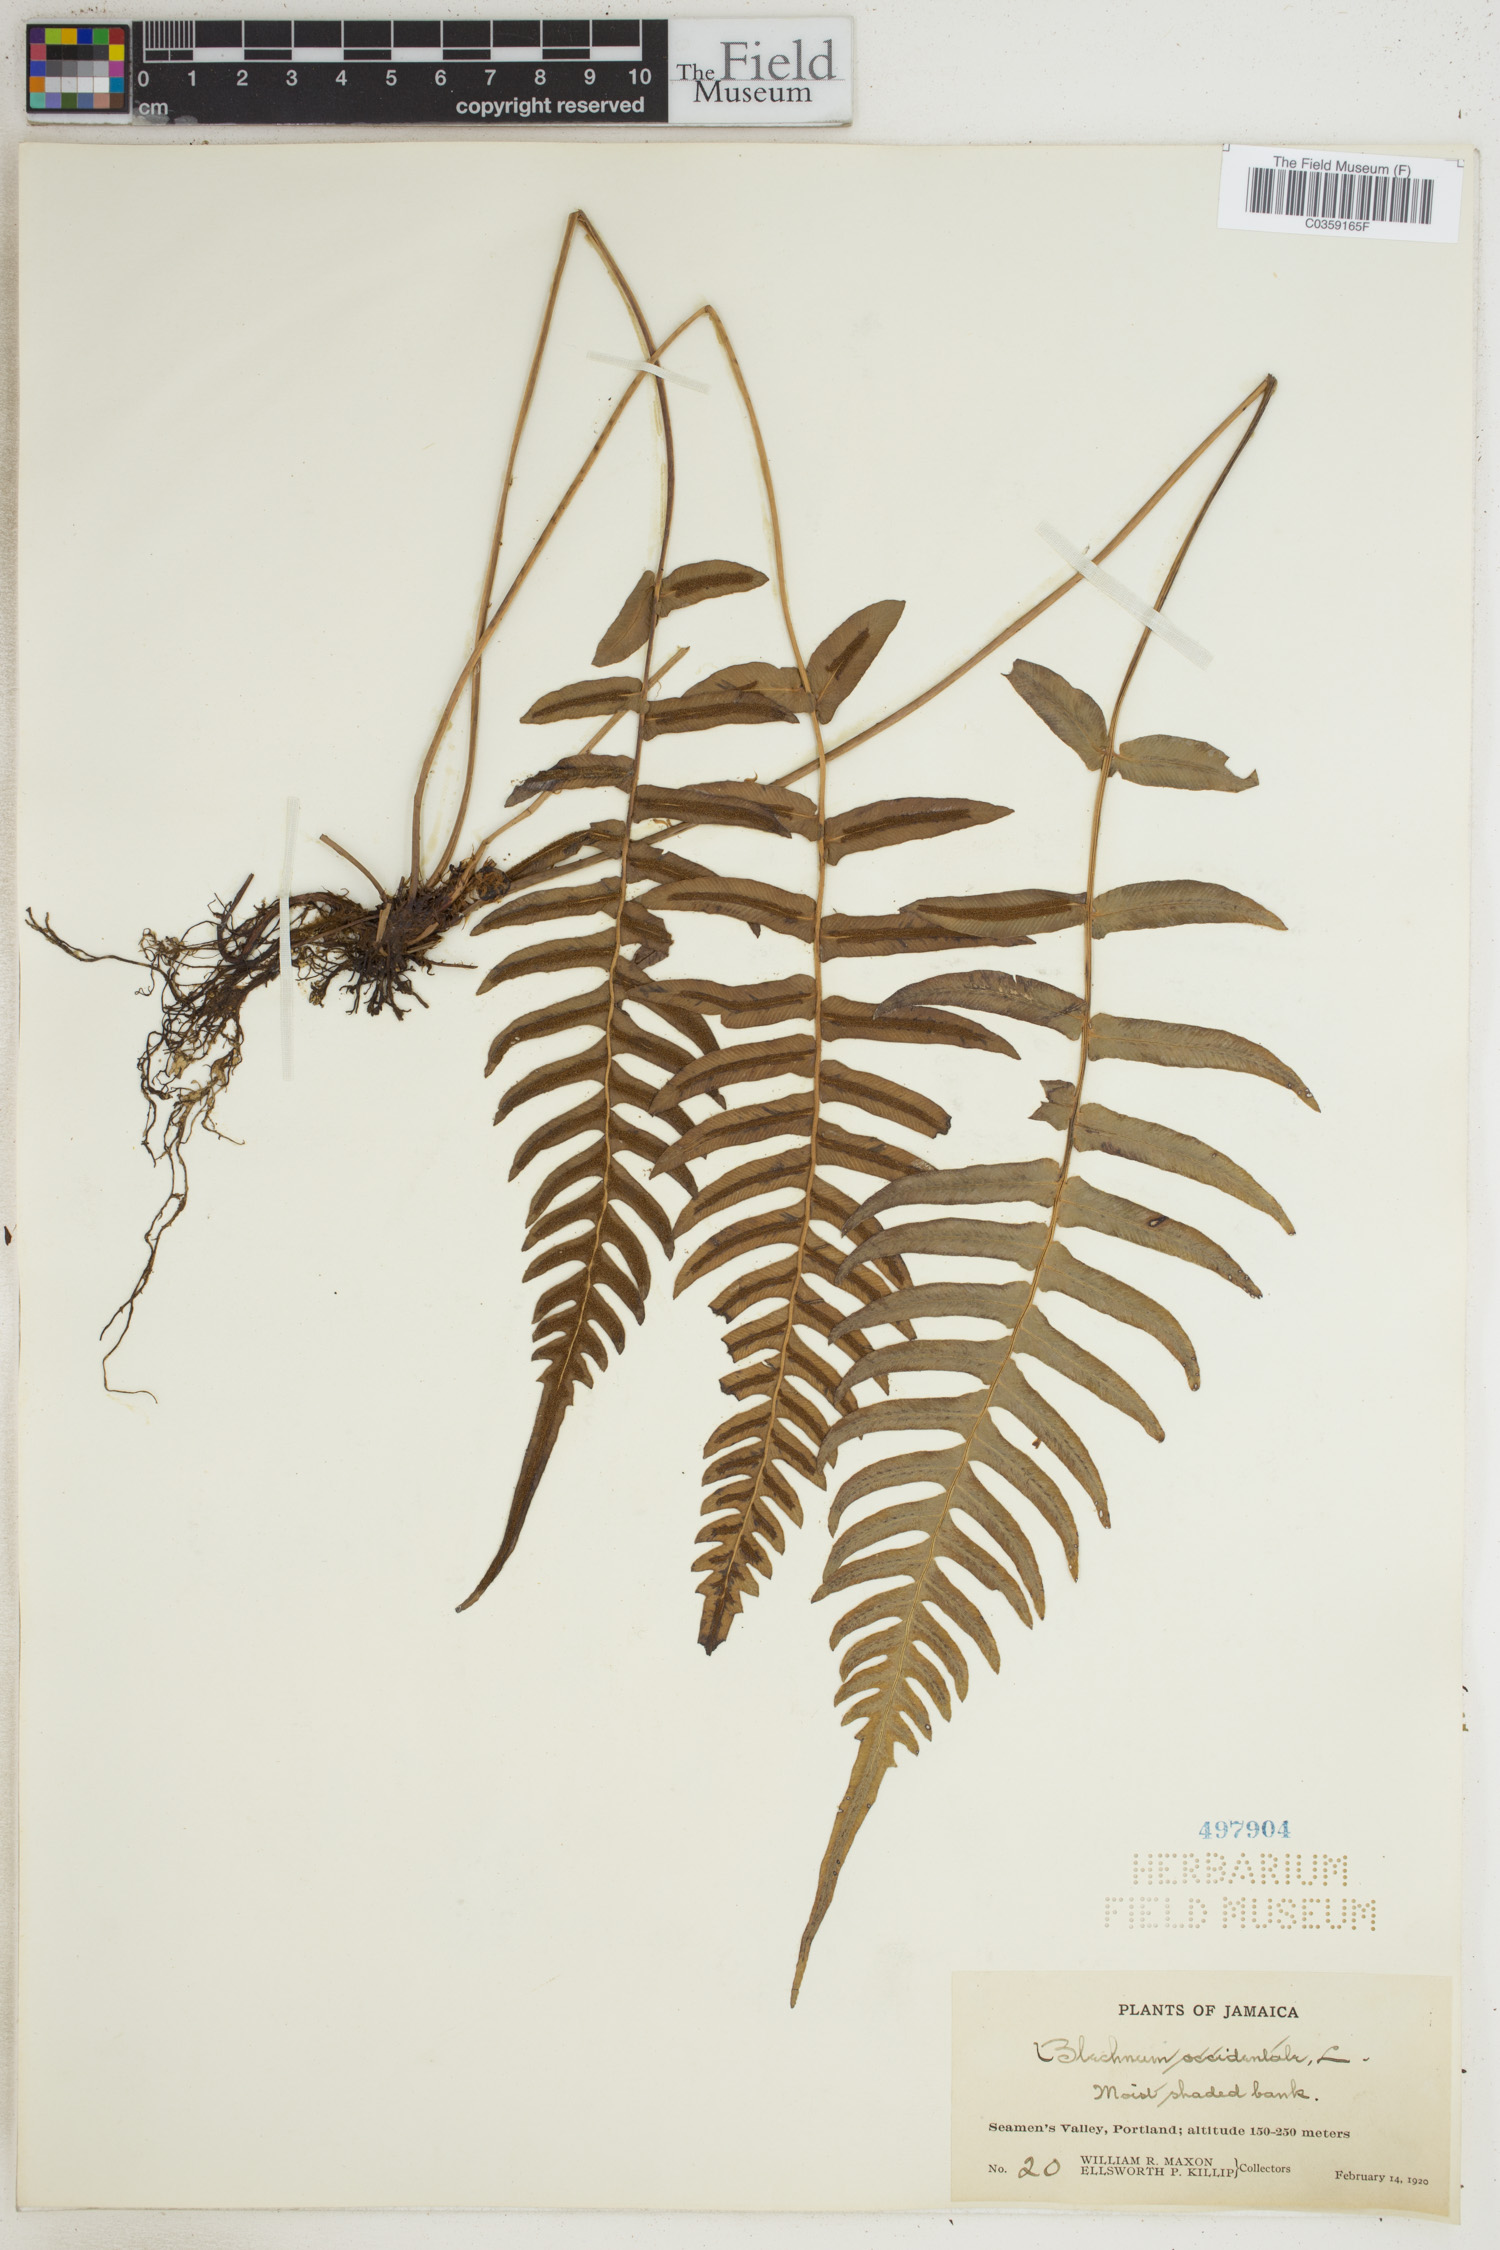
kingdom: Plantae
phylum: Tracheophyta
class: Polypodiopsida
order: Polypodiales
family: Blechnaceae
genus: Blechnum
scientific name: Blechnum occidentale
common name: Hammock fern
